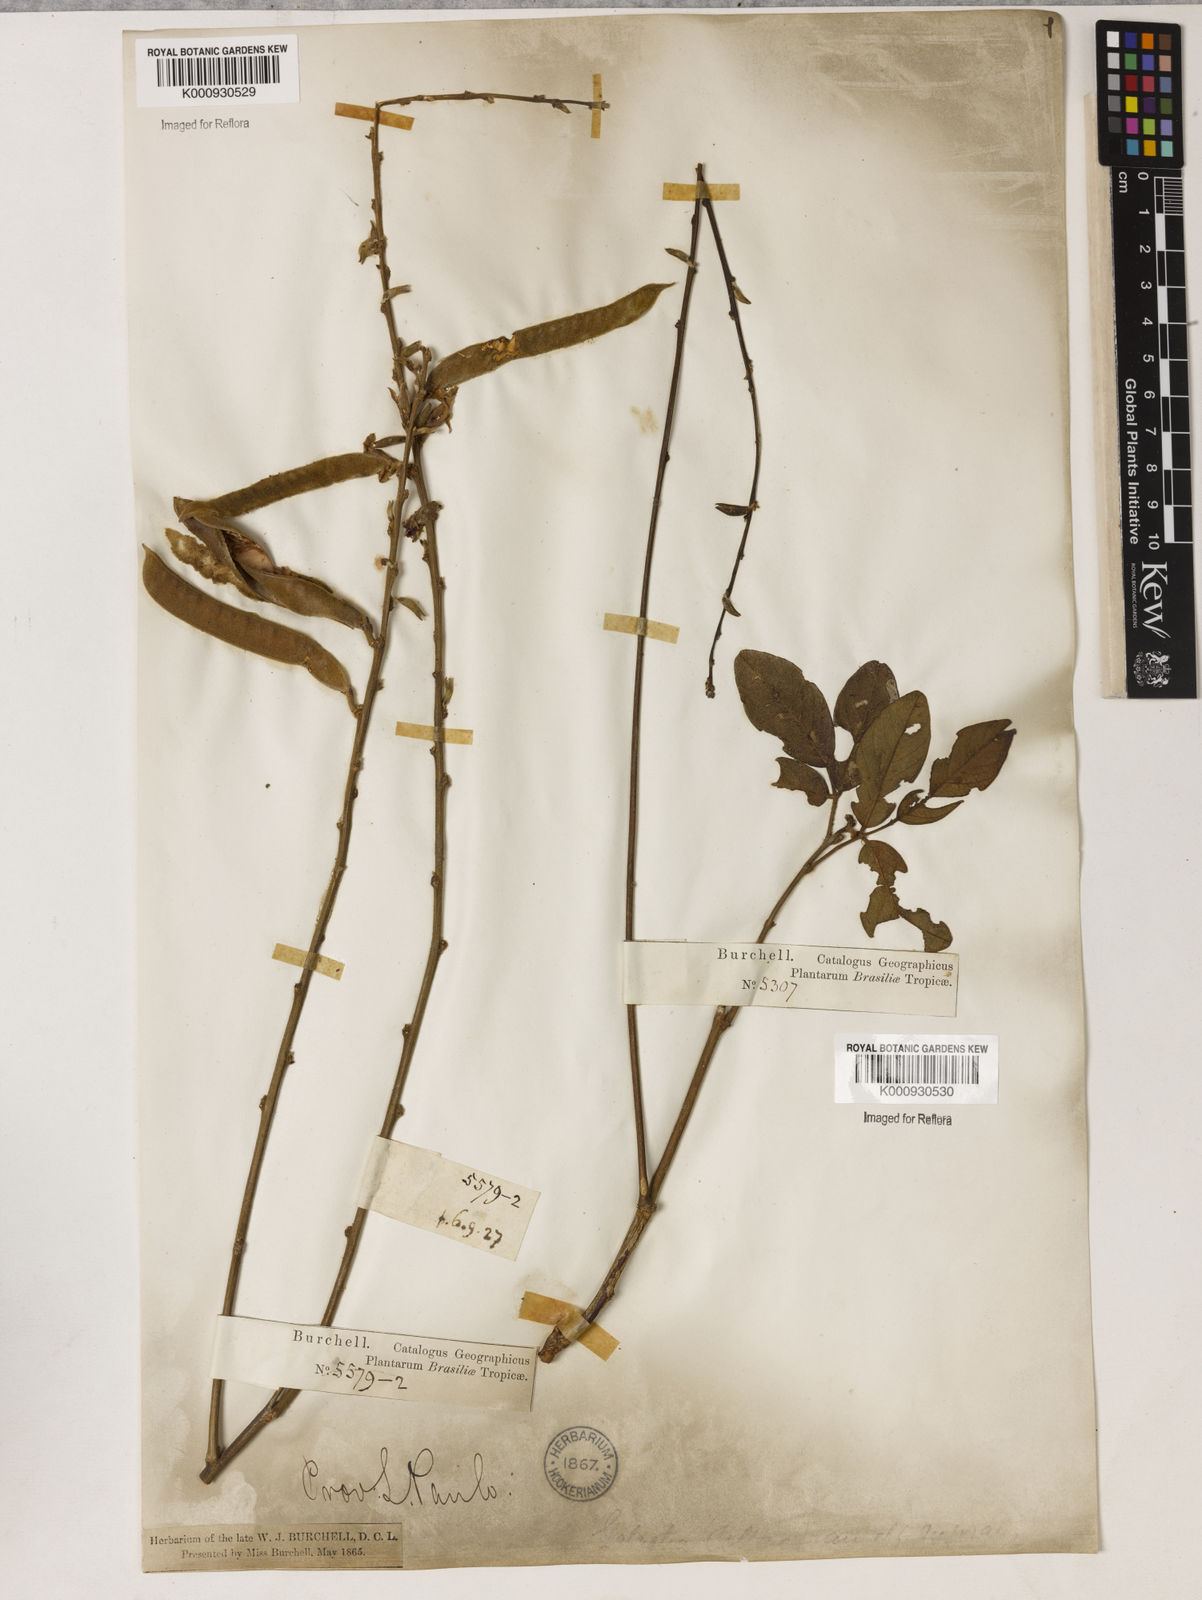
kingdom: Plantae
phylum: Tracheophyta
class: Magnoliopsida
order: Fabales
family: Fabaceae
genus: Galactia
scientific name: Galactia
